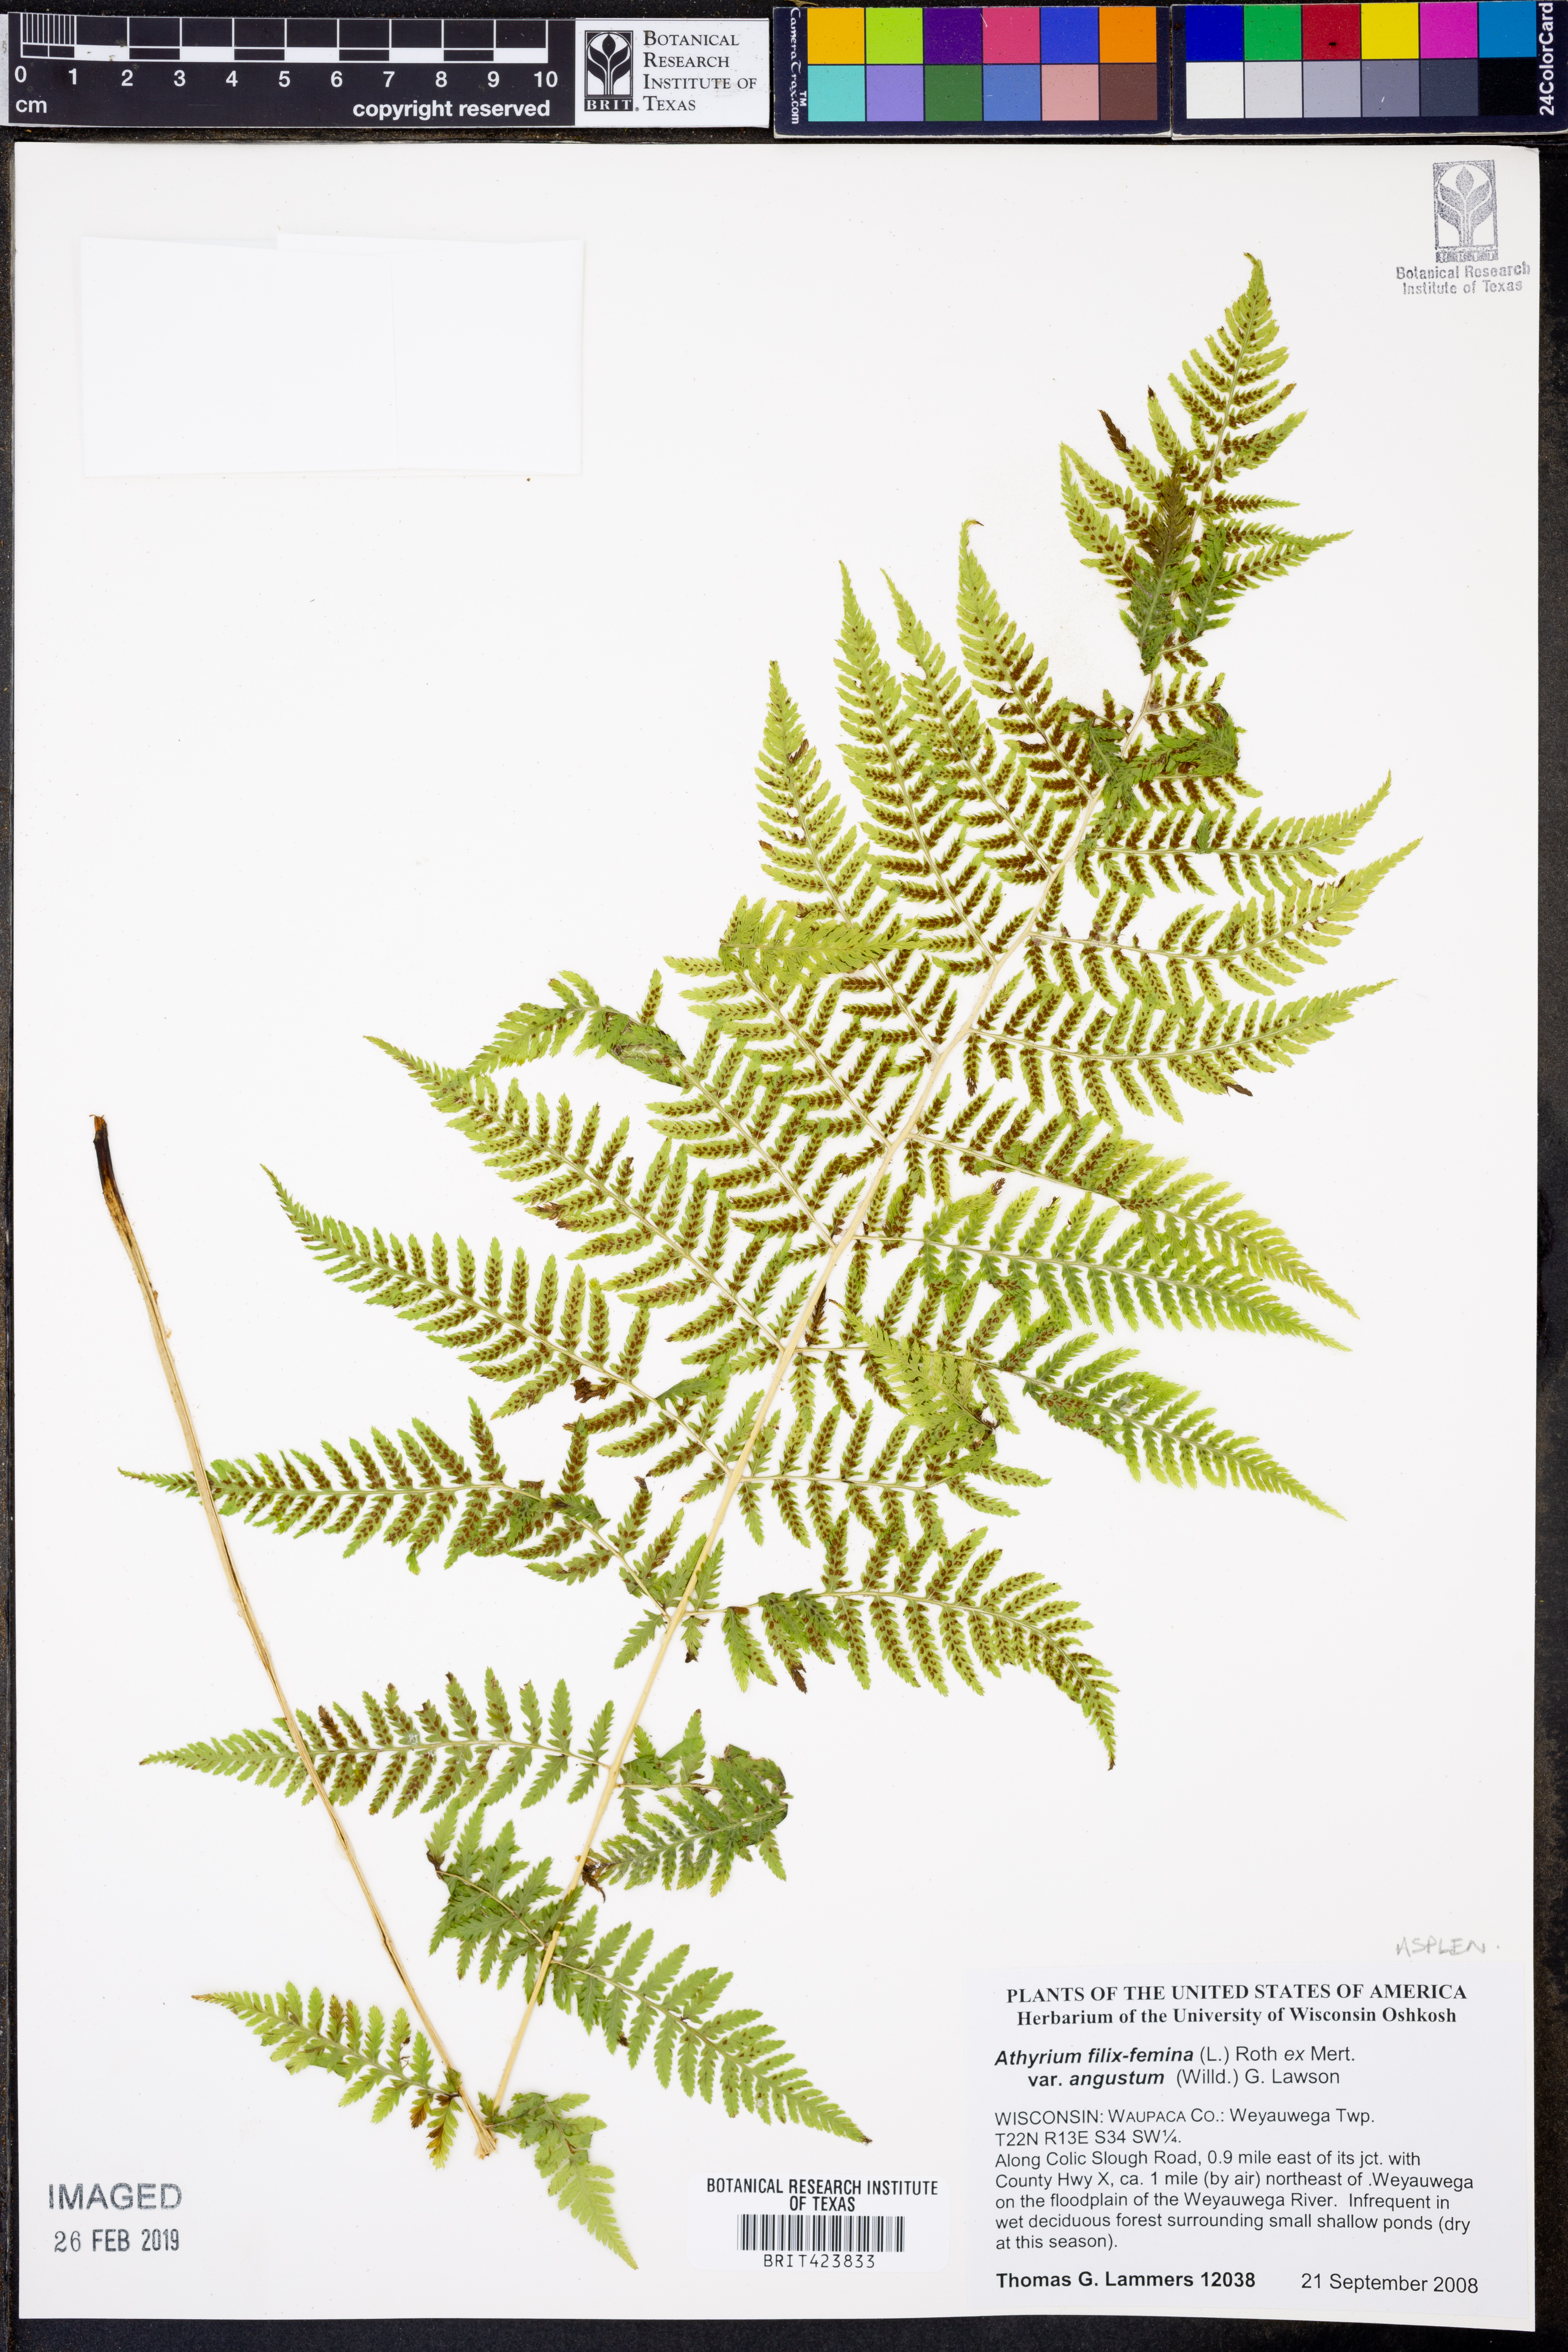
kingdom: Plantae
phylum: Tracheophyta
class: Polypodiopsida
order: Polypodiales
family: Athyriaceae
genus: Athyrium
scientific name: Athyrium angustum
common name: Northern lady fern
